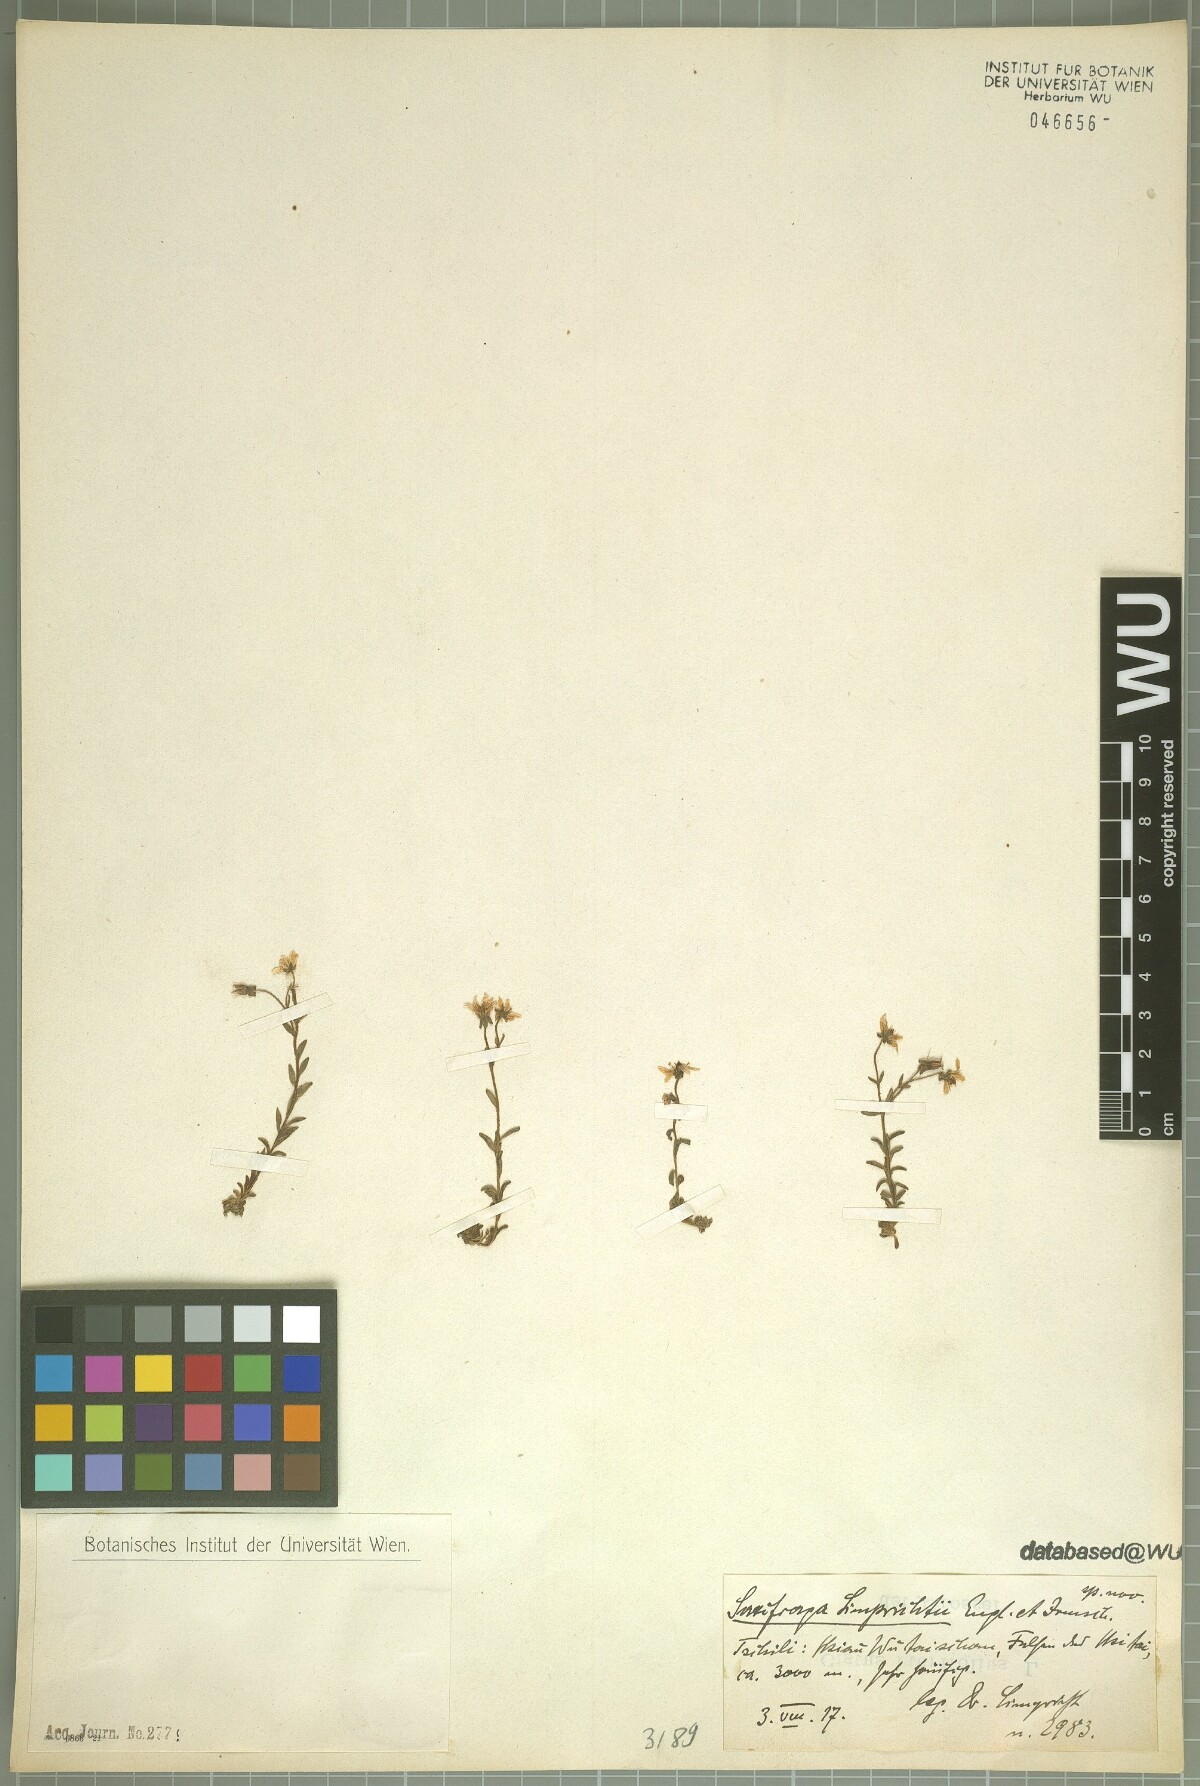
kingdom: Plantae
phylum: Tracheophyta
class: Magnoliopsida
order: Saxifragales
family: Saxifragaceae
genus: Saxifraga
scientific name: Saxifraga unguiculata
